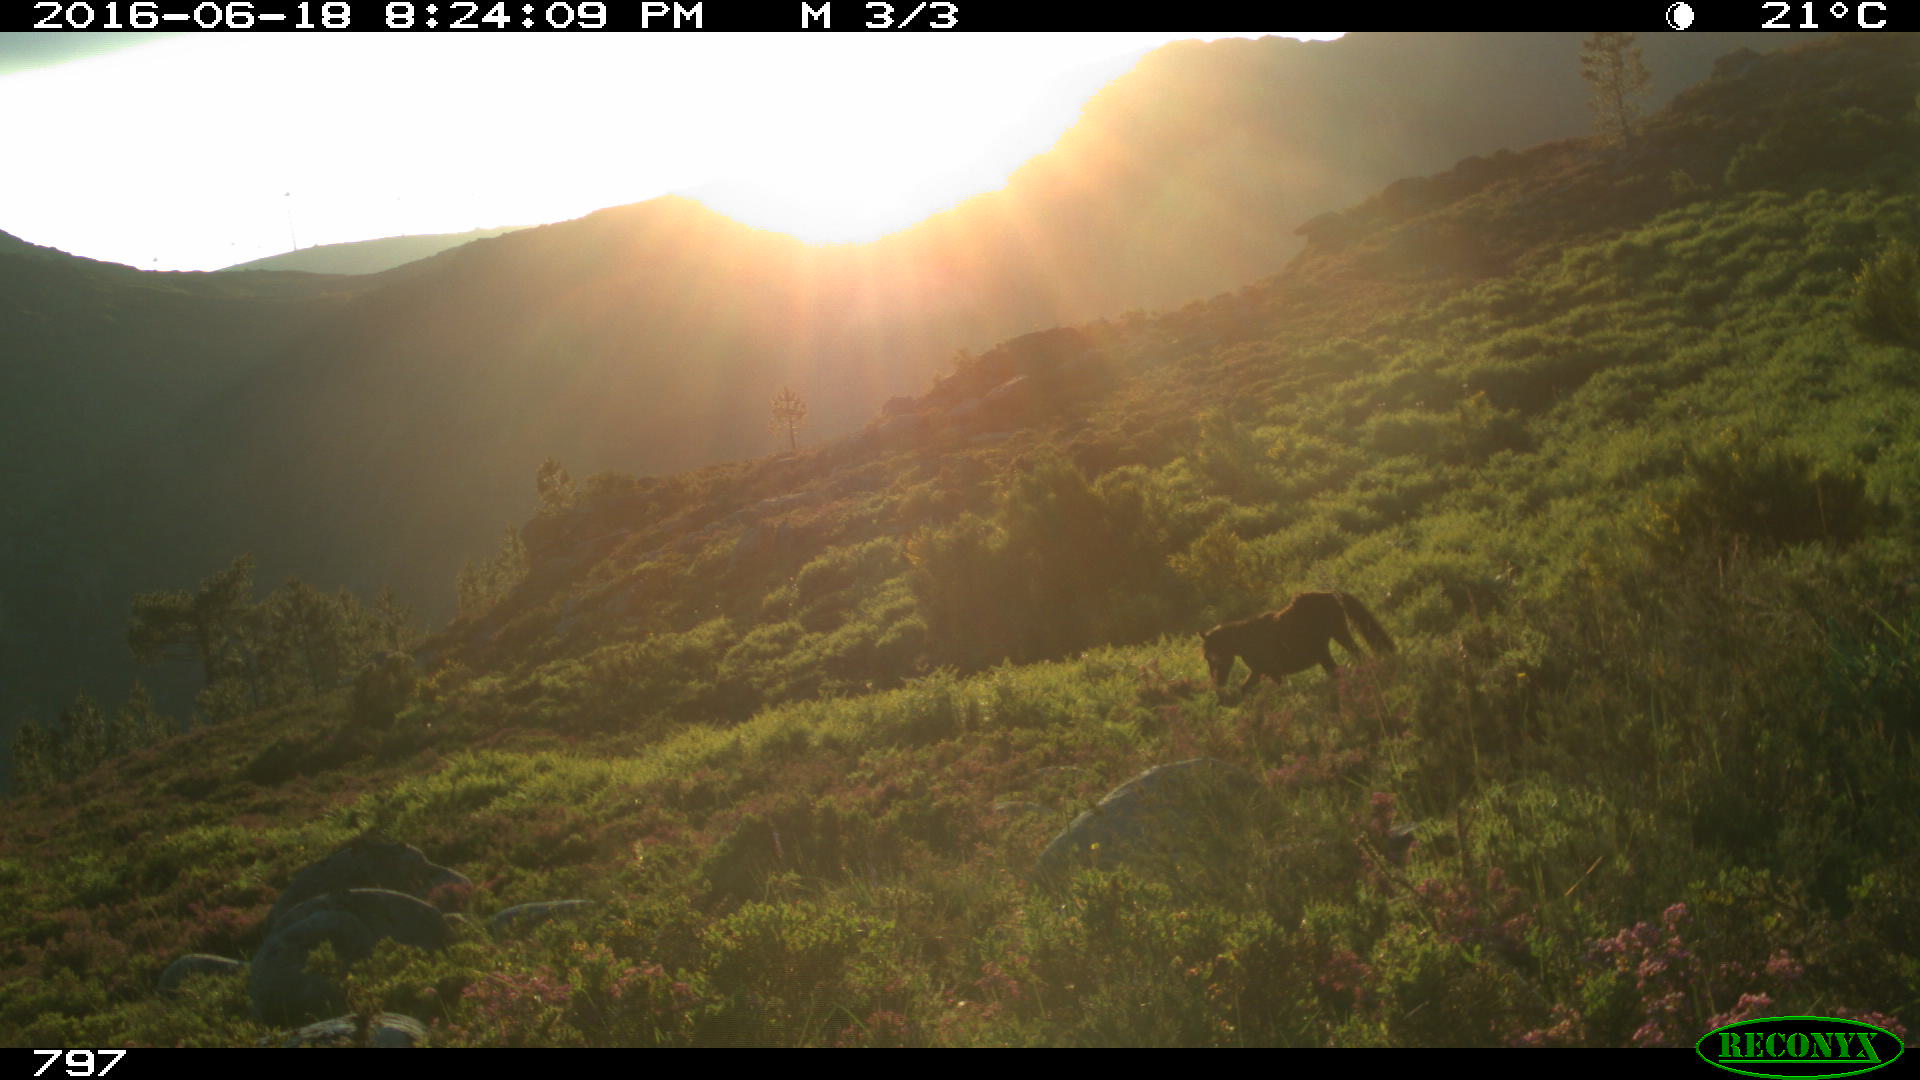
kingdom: Animalia
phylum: Chordata
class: Mammalia
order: Perissodactyla
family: Equidae
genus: Equus
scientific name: Equus caballus
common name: Horse
